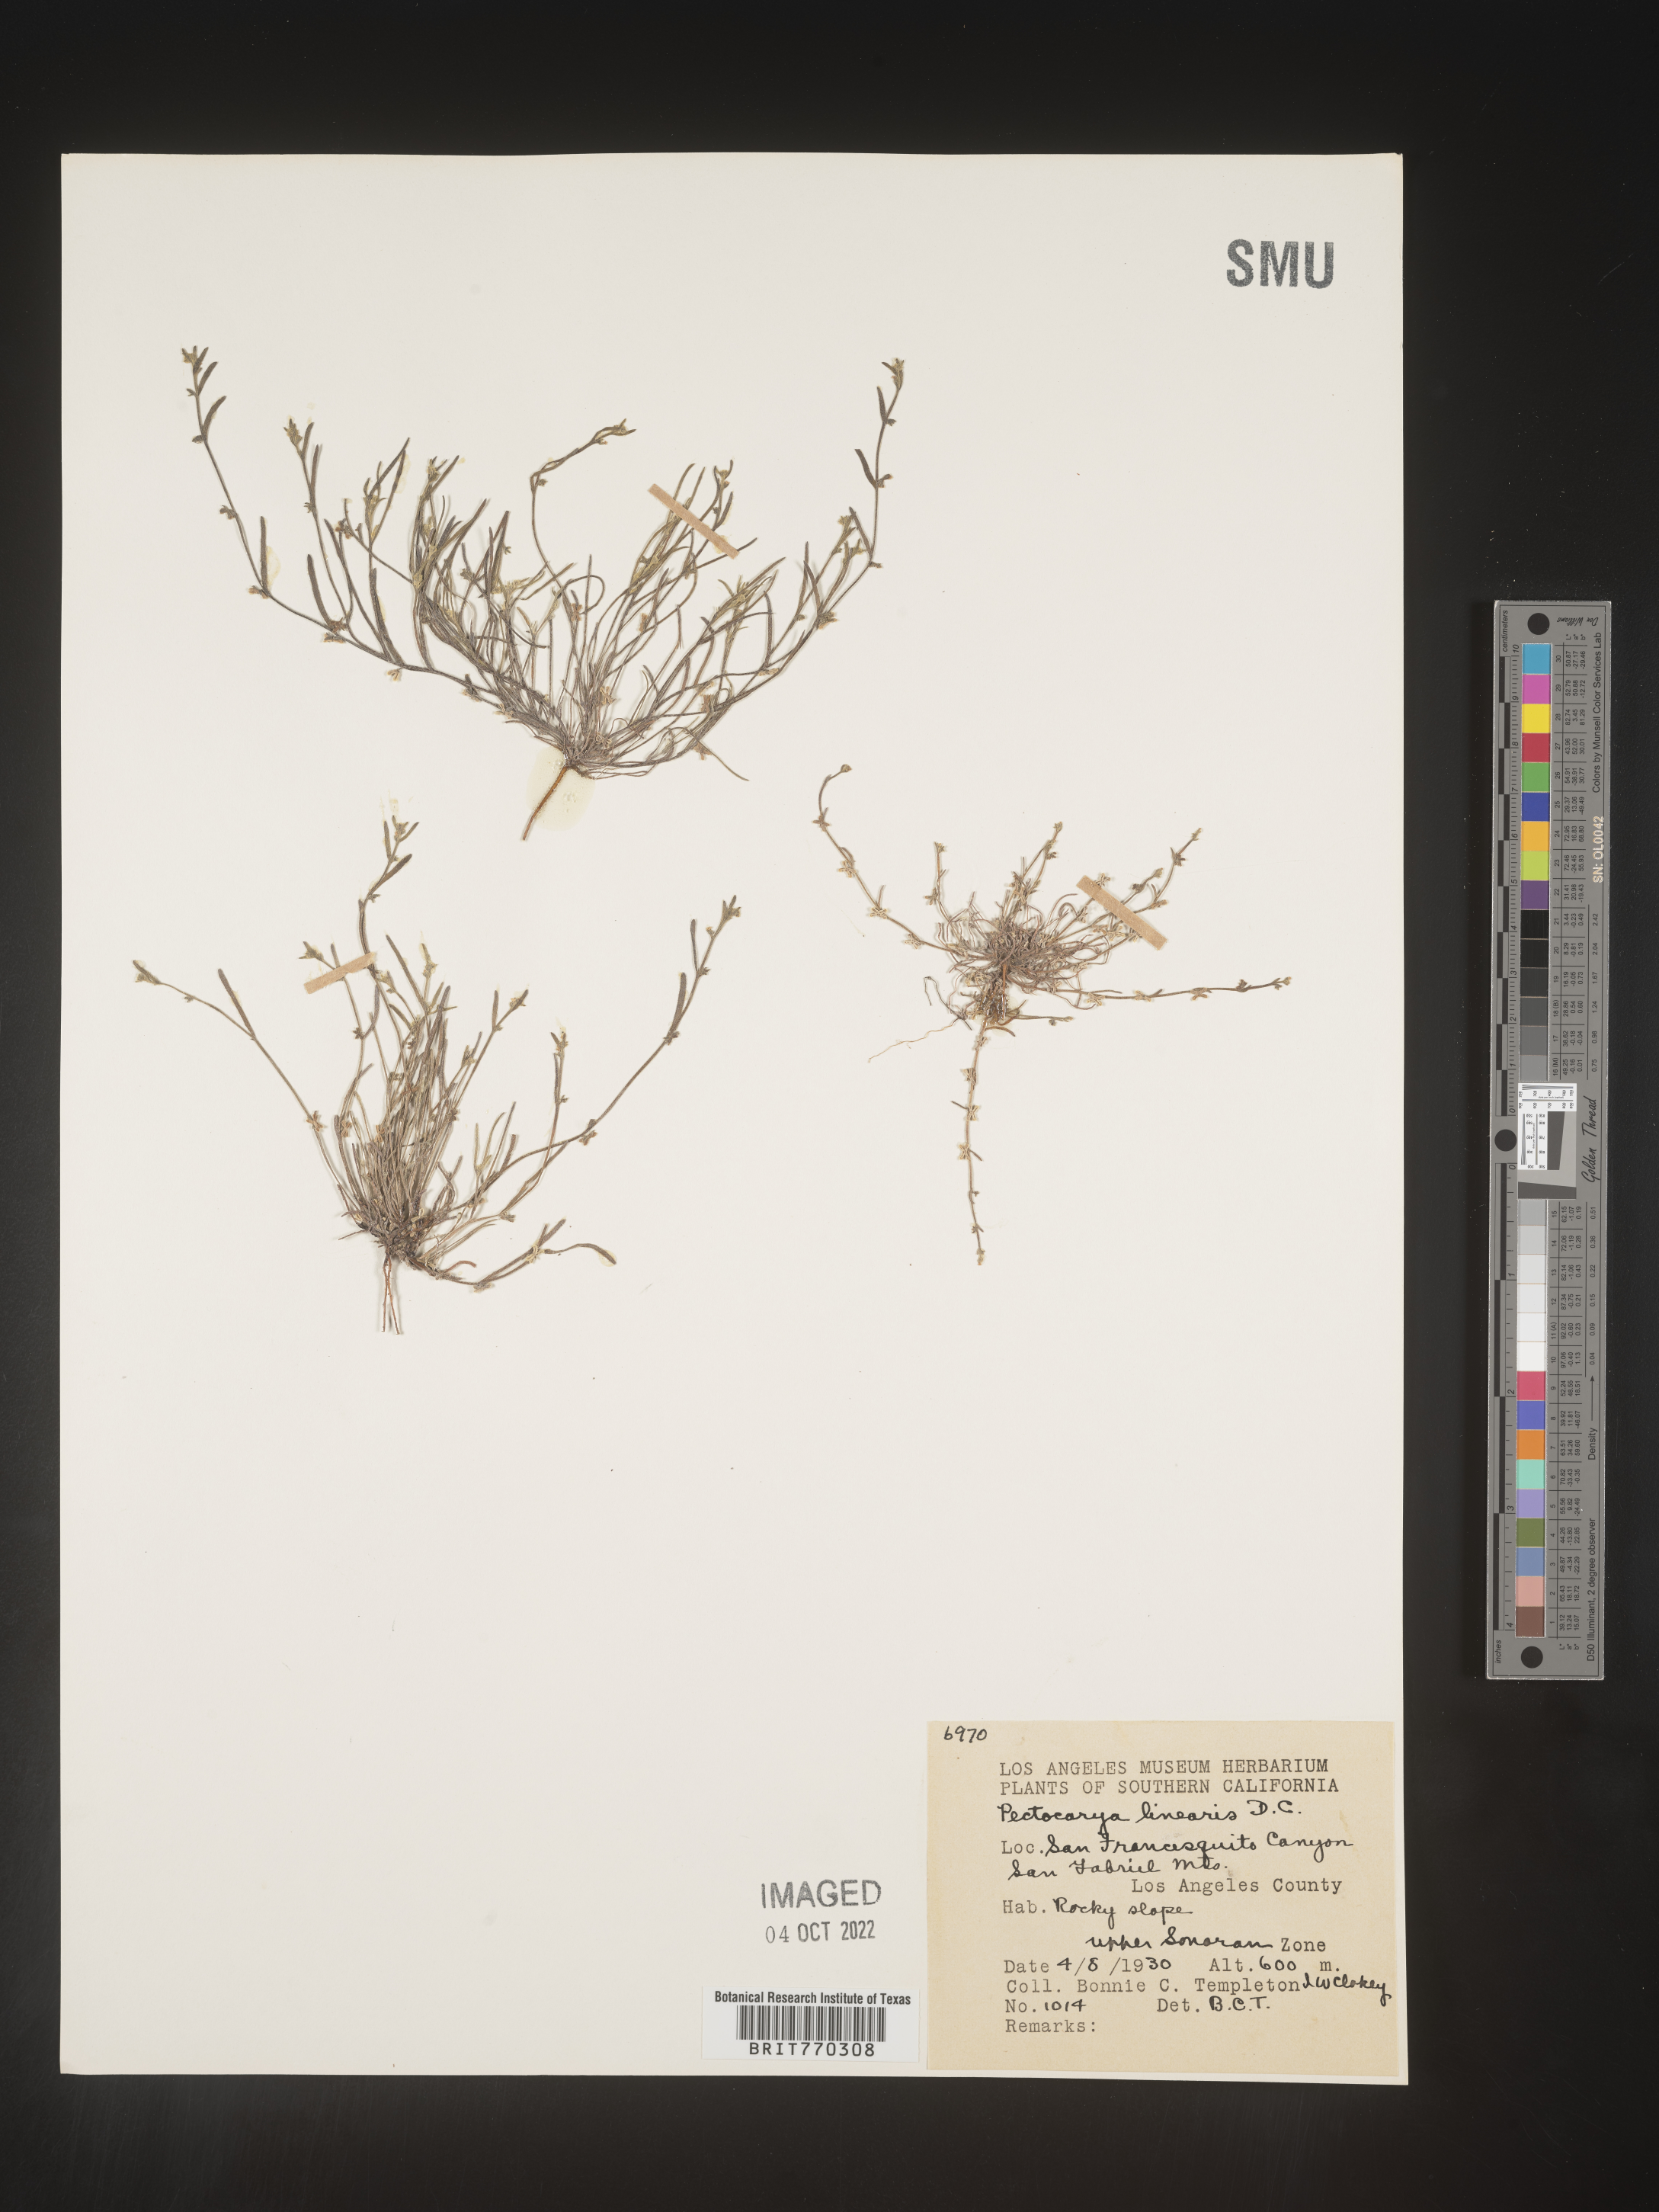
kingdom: Plantae
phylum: Tracheophyta
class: Magnoliopsida
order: Boraginales
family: Boraginaceae
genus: Pectocarya
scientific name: Pectocarya
